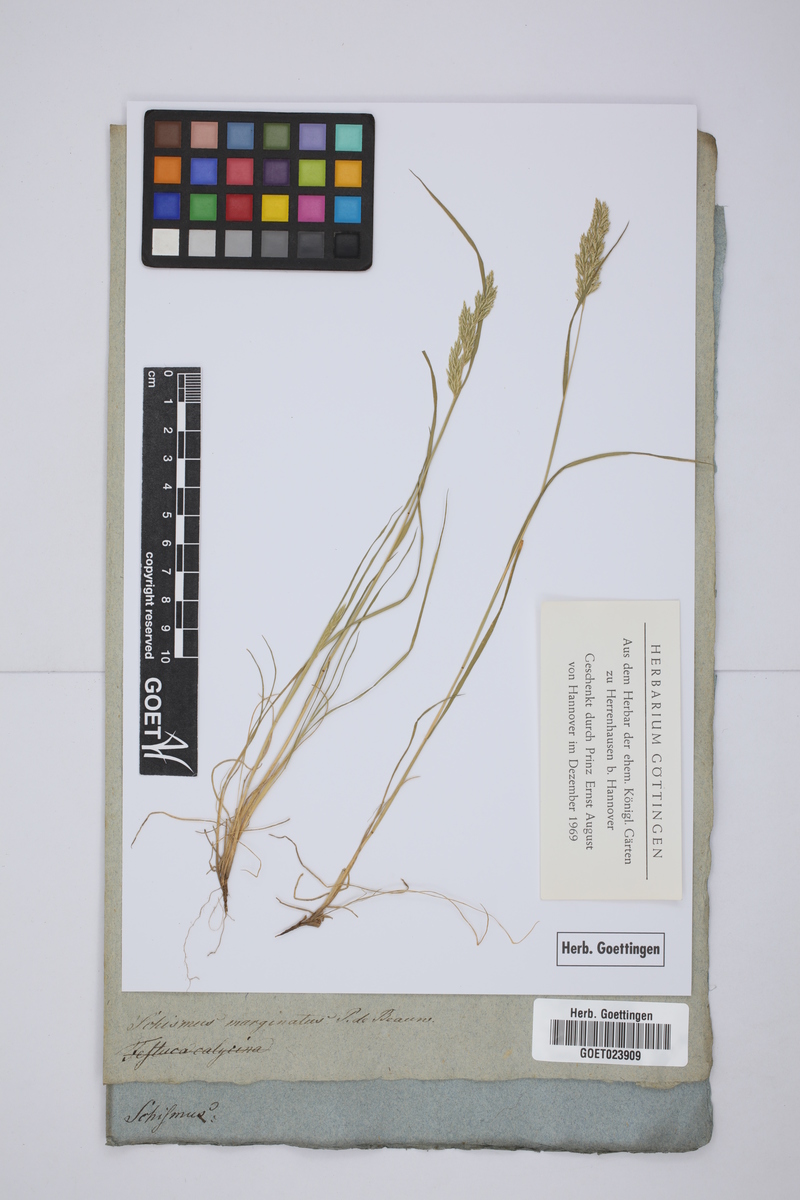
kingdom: Plantae
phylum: Tracheophyta
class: Liliopsida
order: Poales
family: Poaceae
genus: Schismus
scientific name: Schismus barbatus
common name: Kelch-grass
